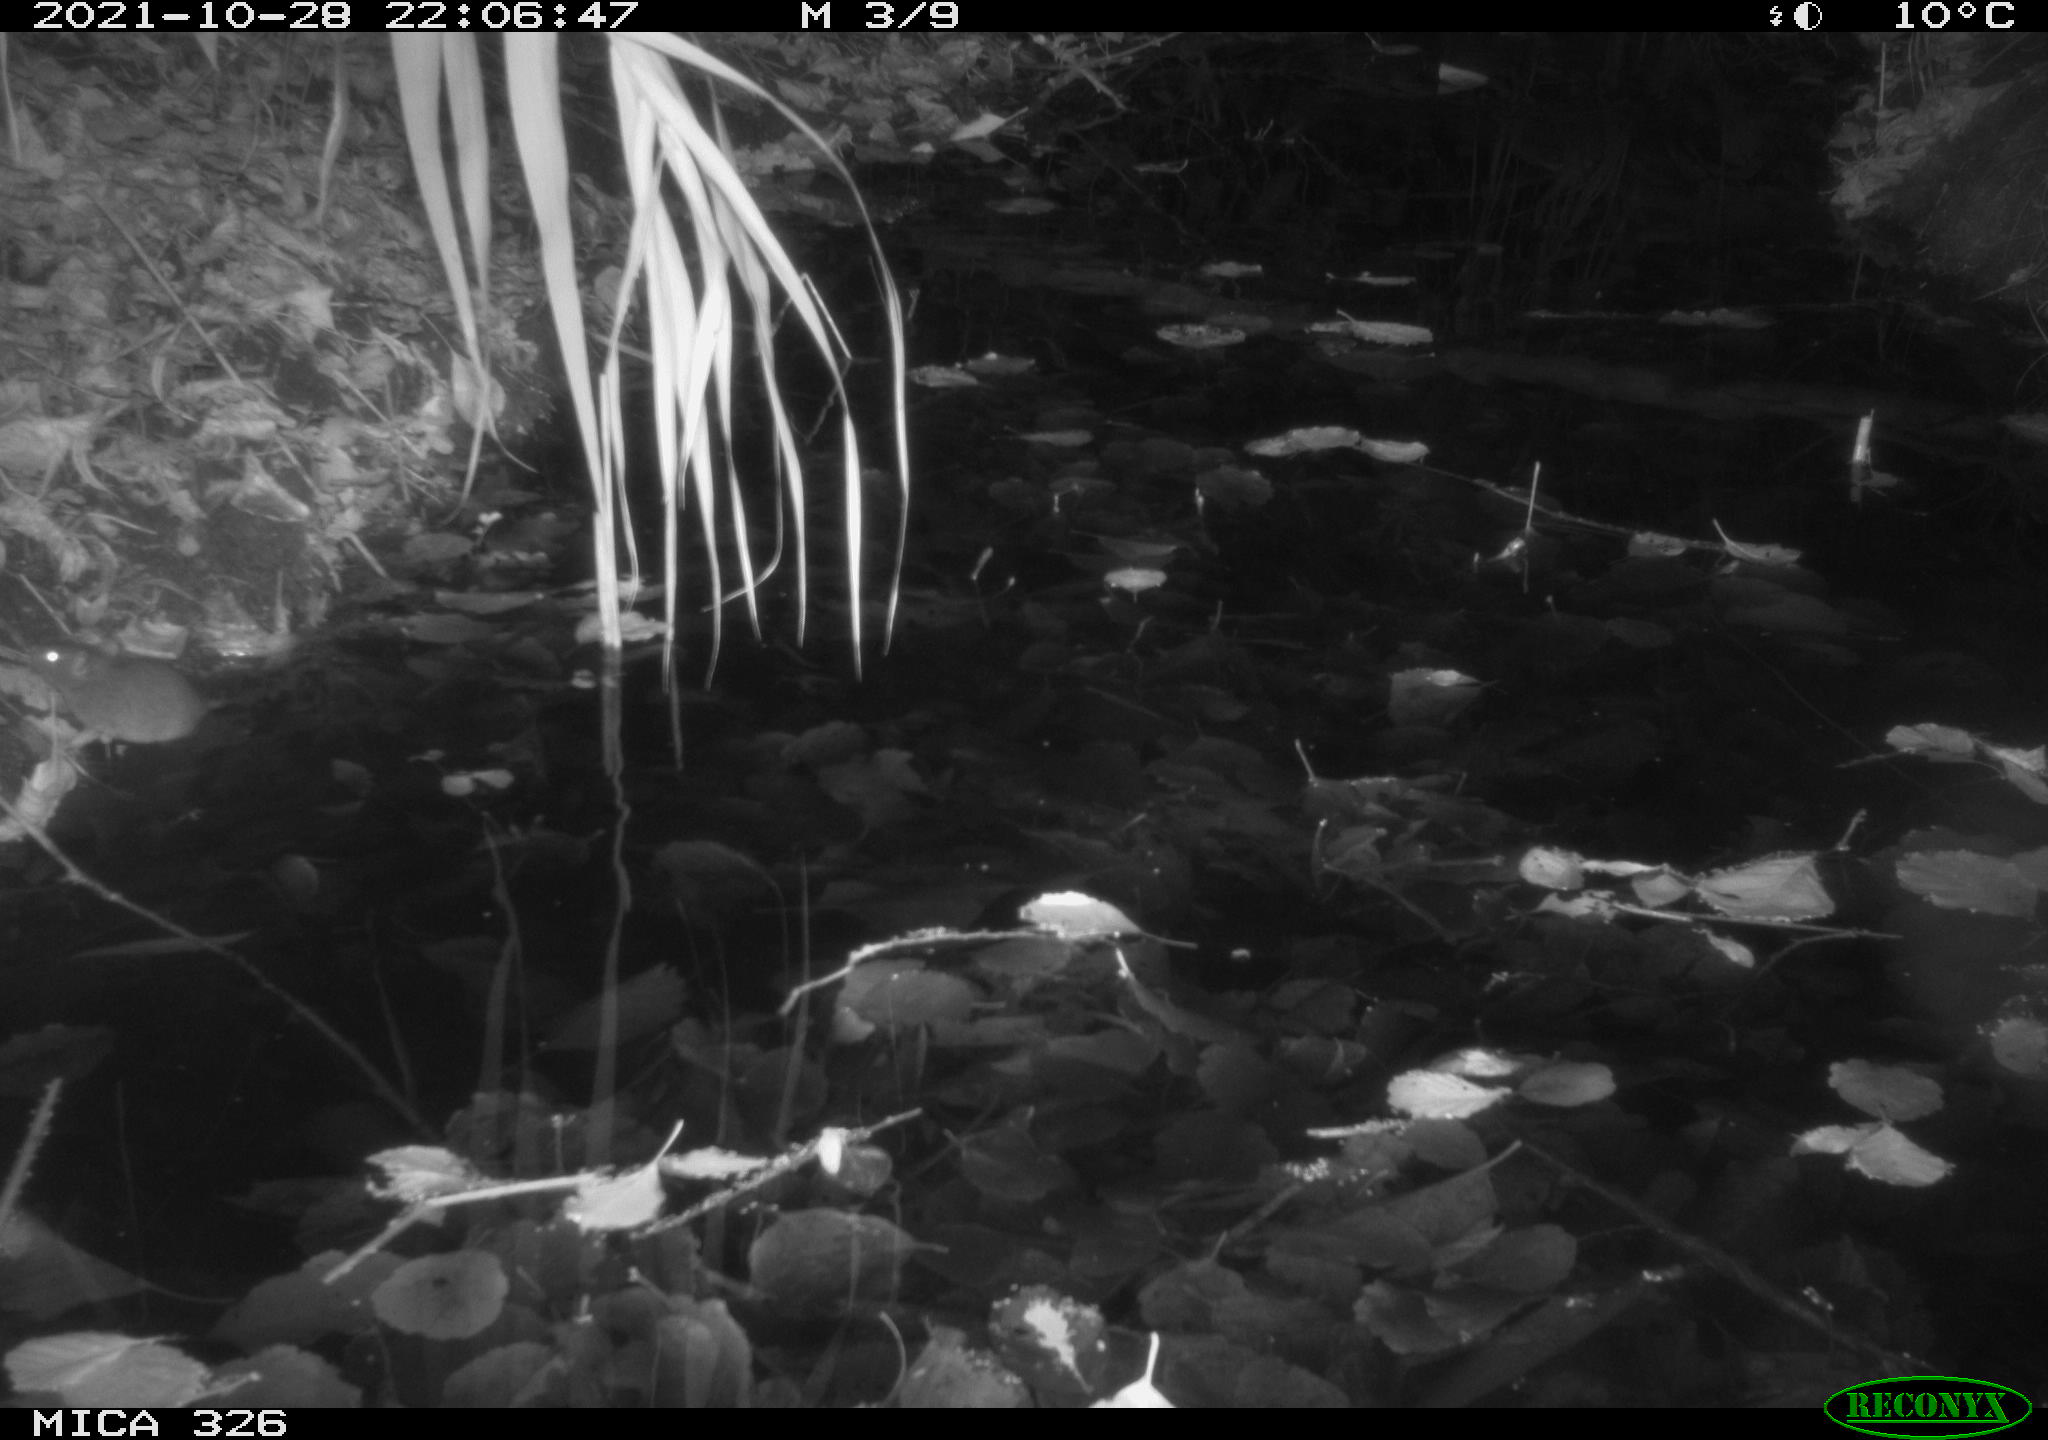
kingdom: Animalia
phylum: Chordata
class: Mammalia
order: Rodentia
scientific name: Rodentia
